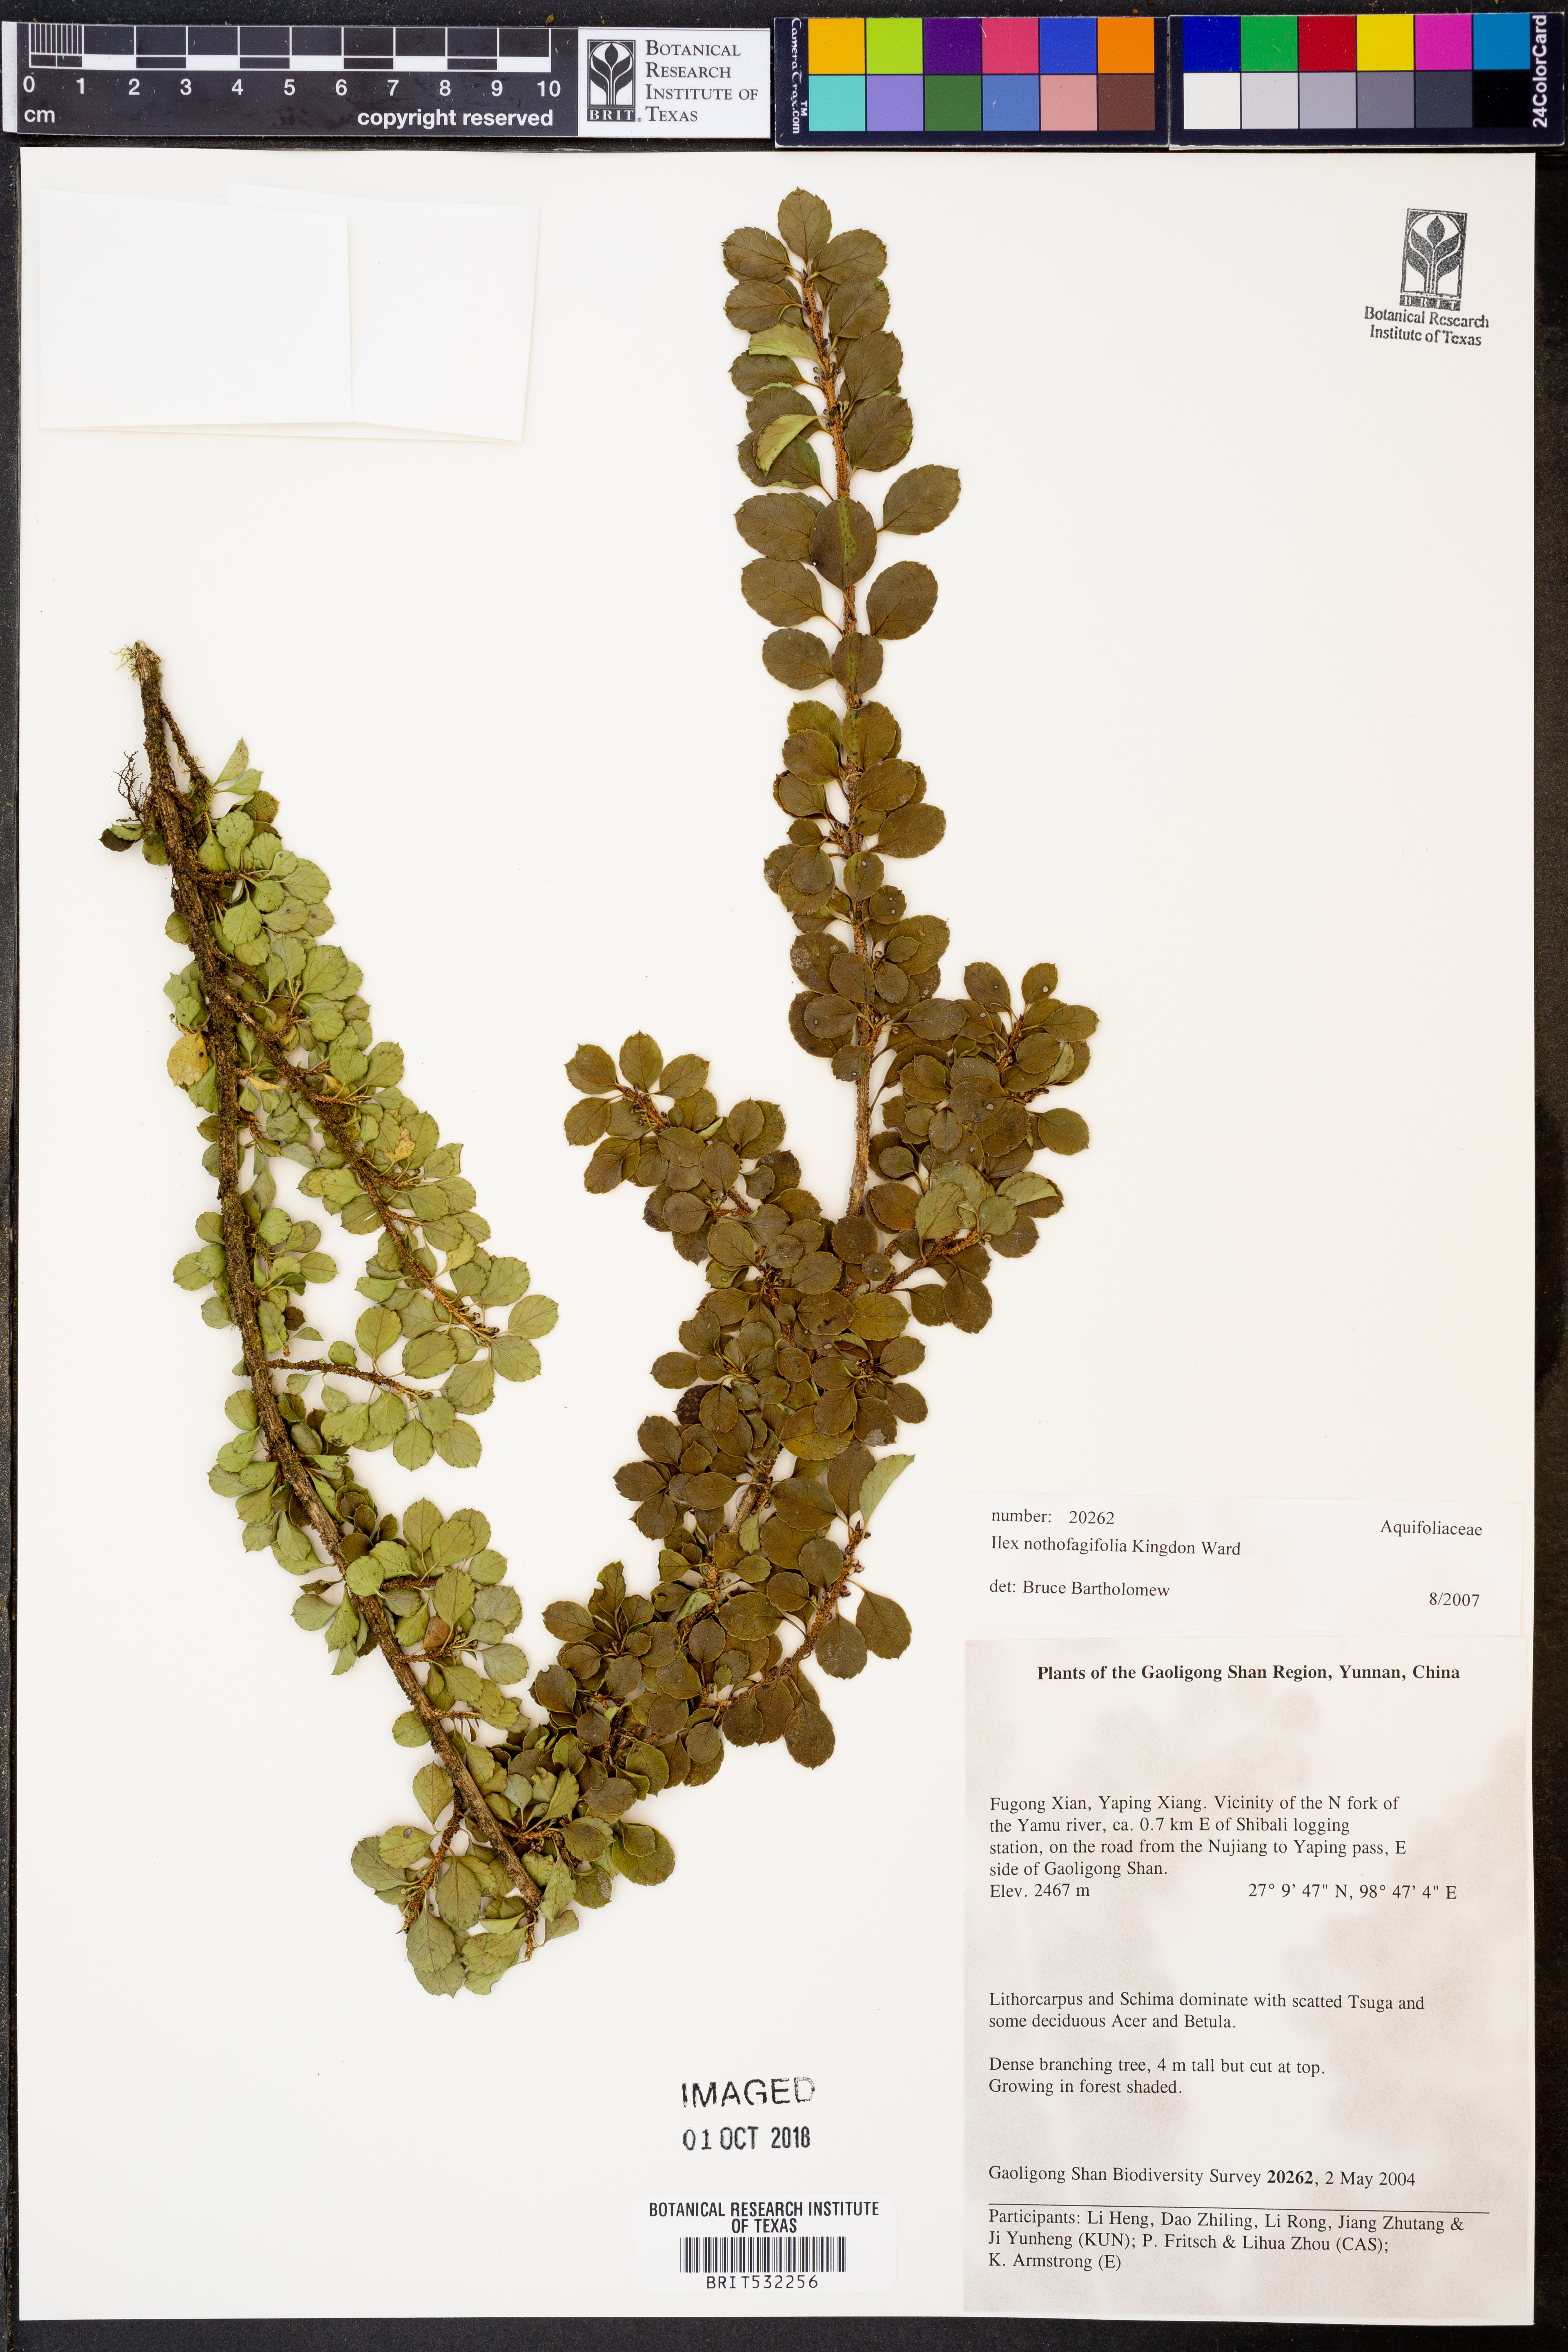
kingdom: Plantae
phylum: Tracheophyta
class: Magnoliopsida
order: Aquifoliales
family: Aquifoliaceae
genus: Ilex
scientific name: Ilex nothofagifolia
